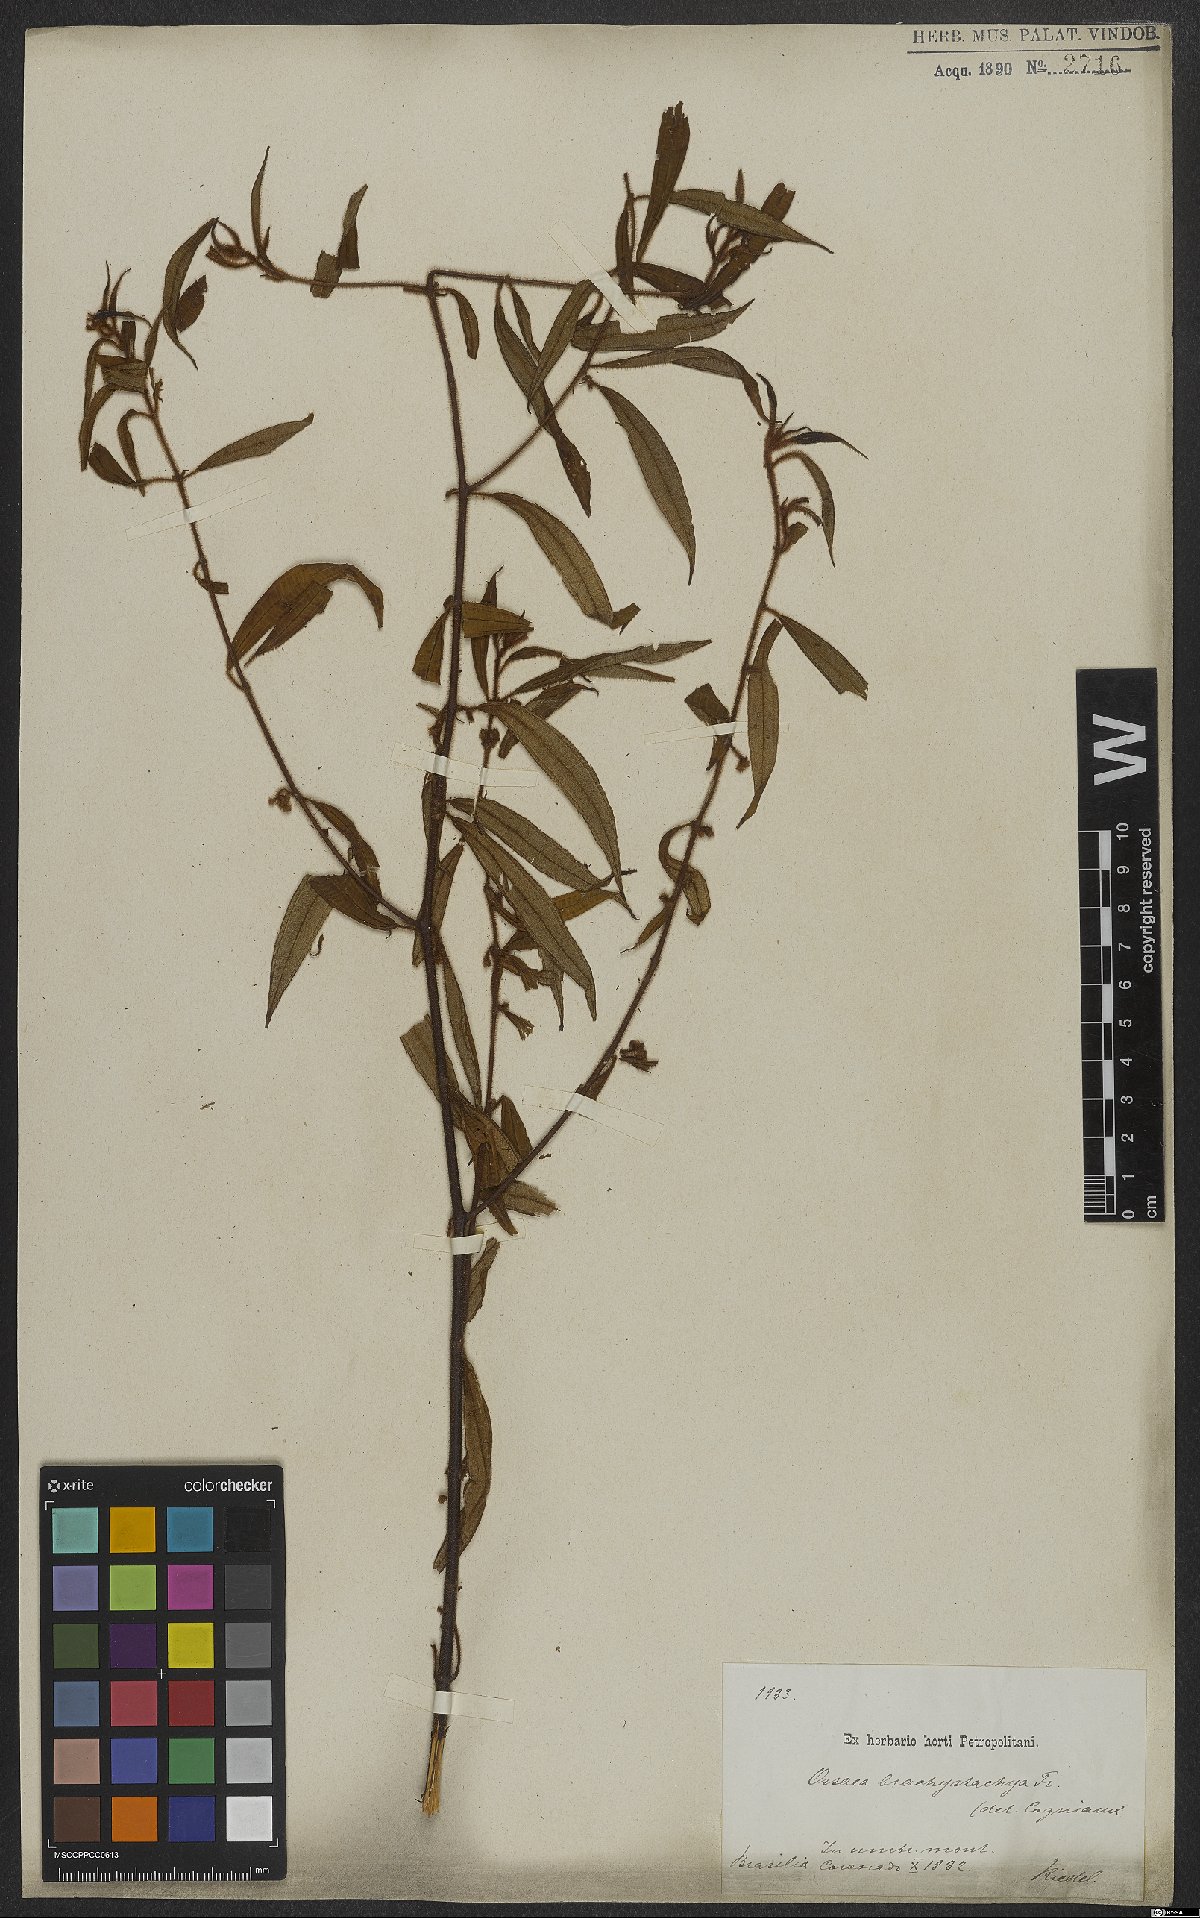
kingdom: Plantae
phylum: Tracheophyta
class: Magnoliopsida
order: Myrtales
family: Melastomataceae
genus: Miconia
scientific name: Miconia amygdaloides
